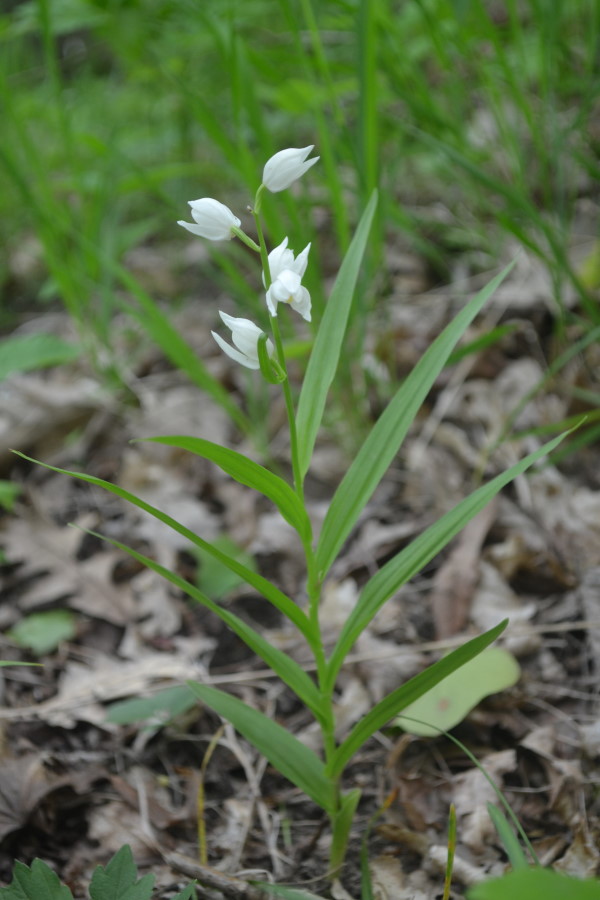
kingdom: Plantae
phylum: Tracheophyta
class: Liliopsida
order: Asparagales
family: Orchidaceae
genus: Cephalanthera
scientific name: Cephalanthera longifolia
